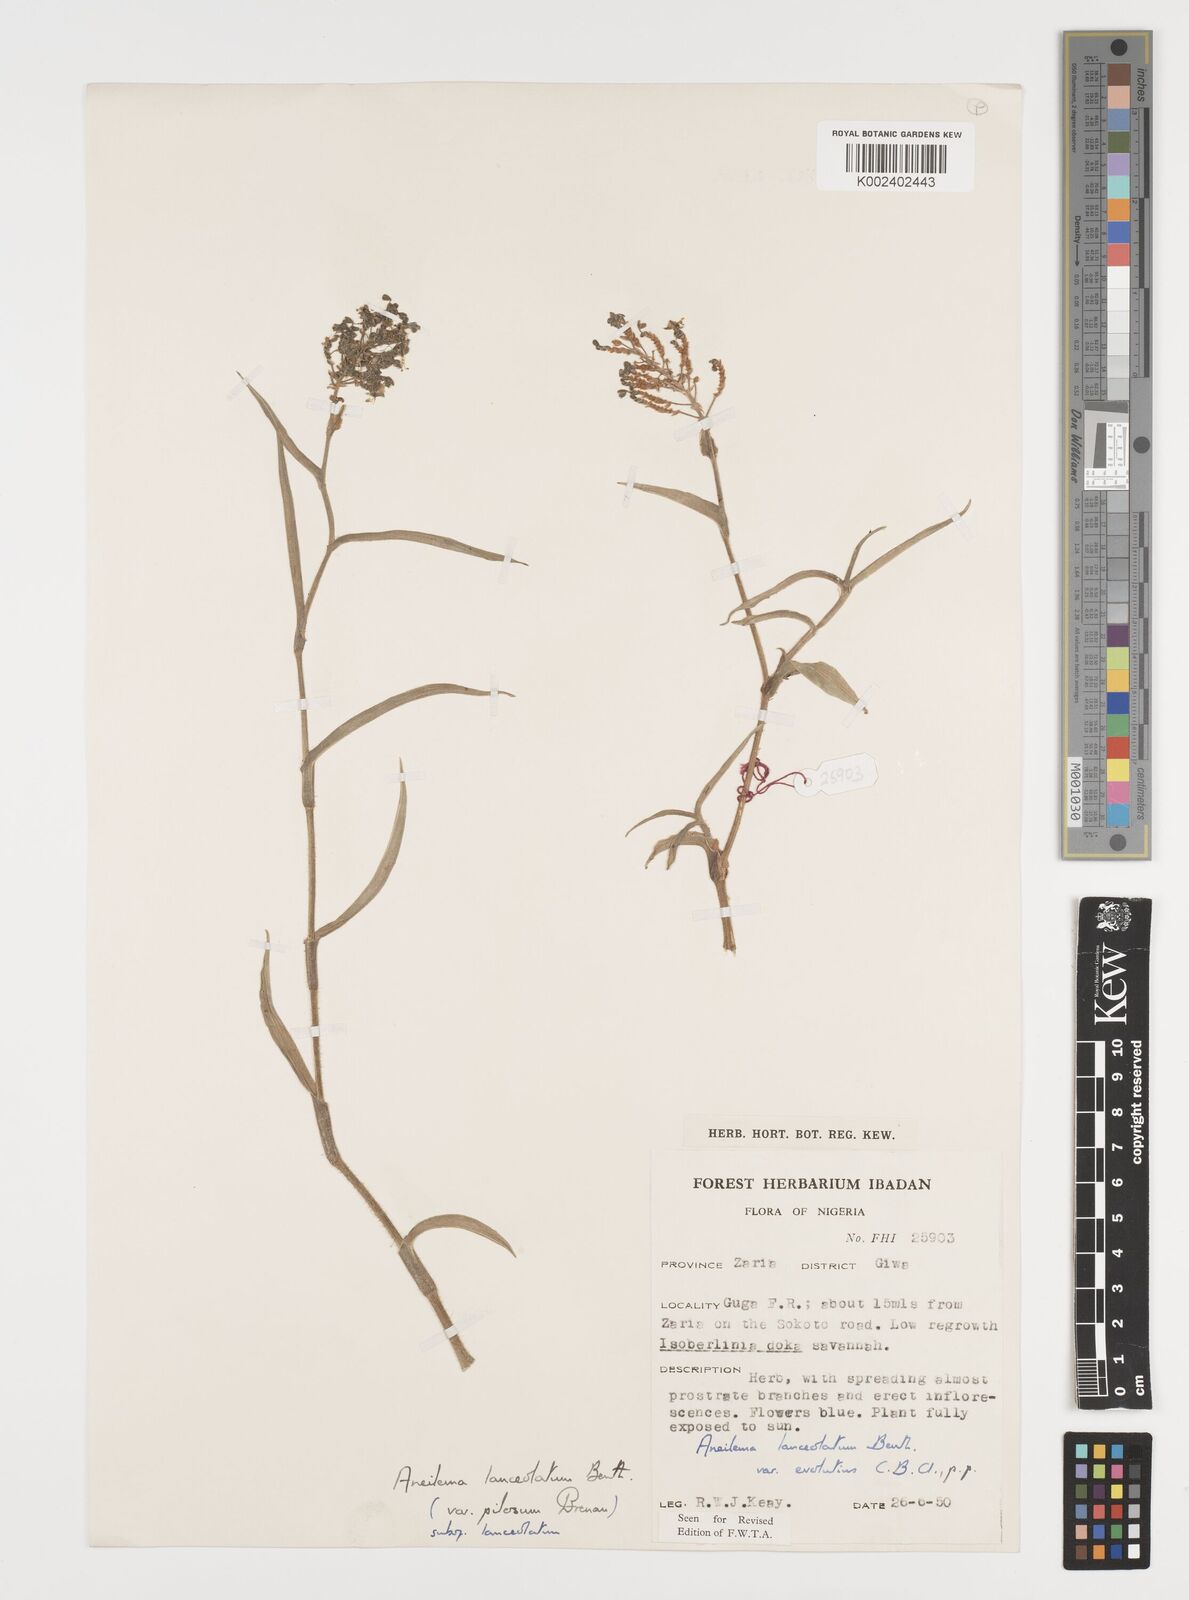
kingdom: Plantae
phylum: Tracheophyta
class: Liliopsida
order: Commelinales
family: Commelinaceae
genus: Aneilema
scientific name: Aneilema lanceolatum
